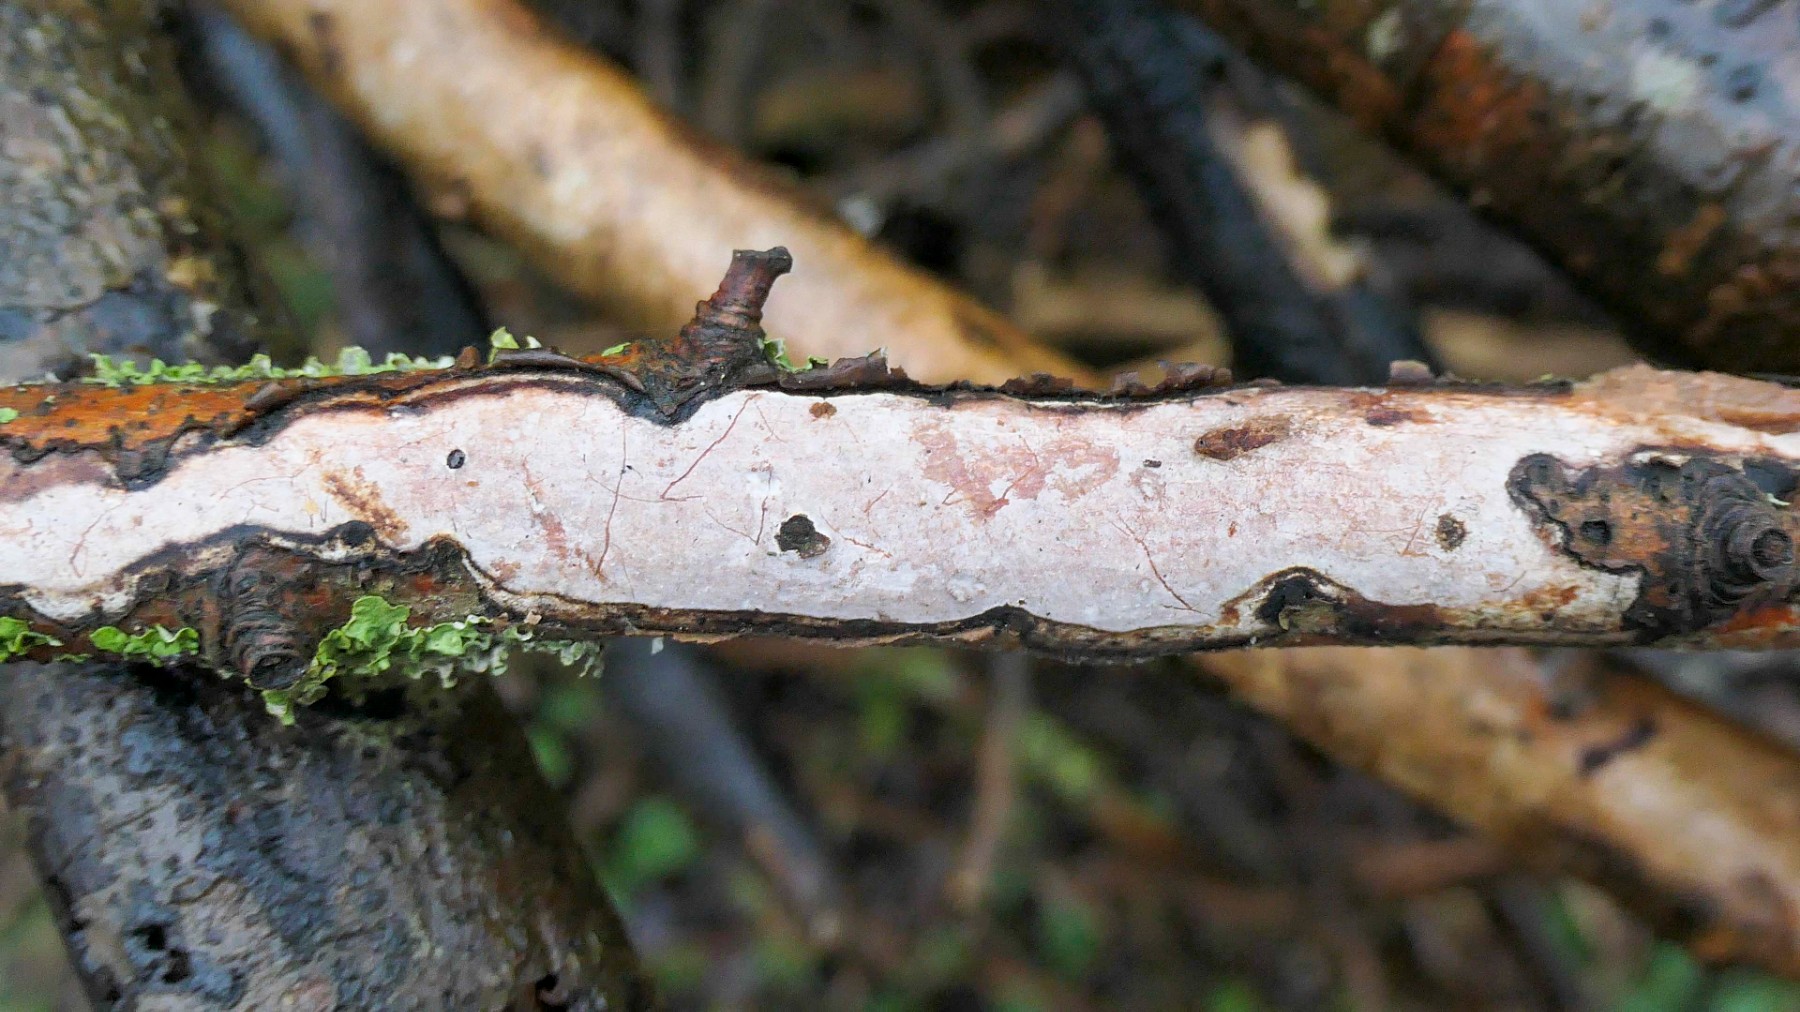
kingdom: Fungi
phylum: Basidiomycota
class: Agaricomycetes
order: Corticiales
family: Vuilleminiaceae
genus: Vuilleminia
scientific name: Vuilleminia cystidiata
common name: tjørne-barksprænger
